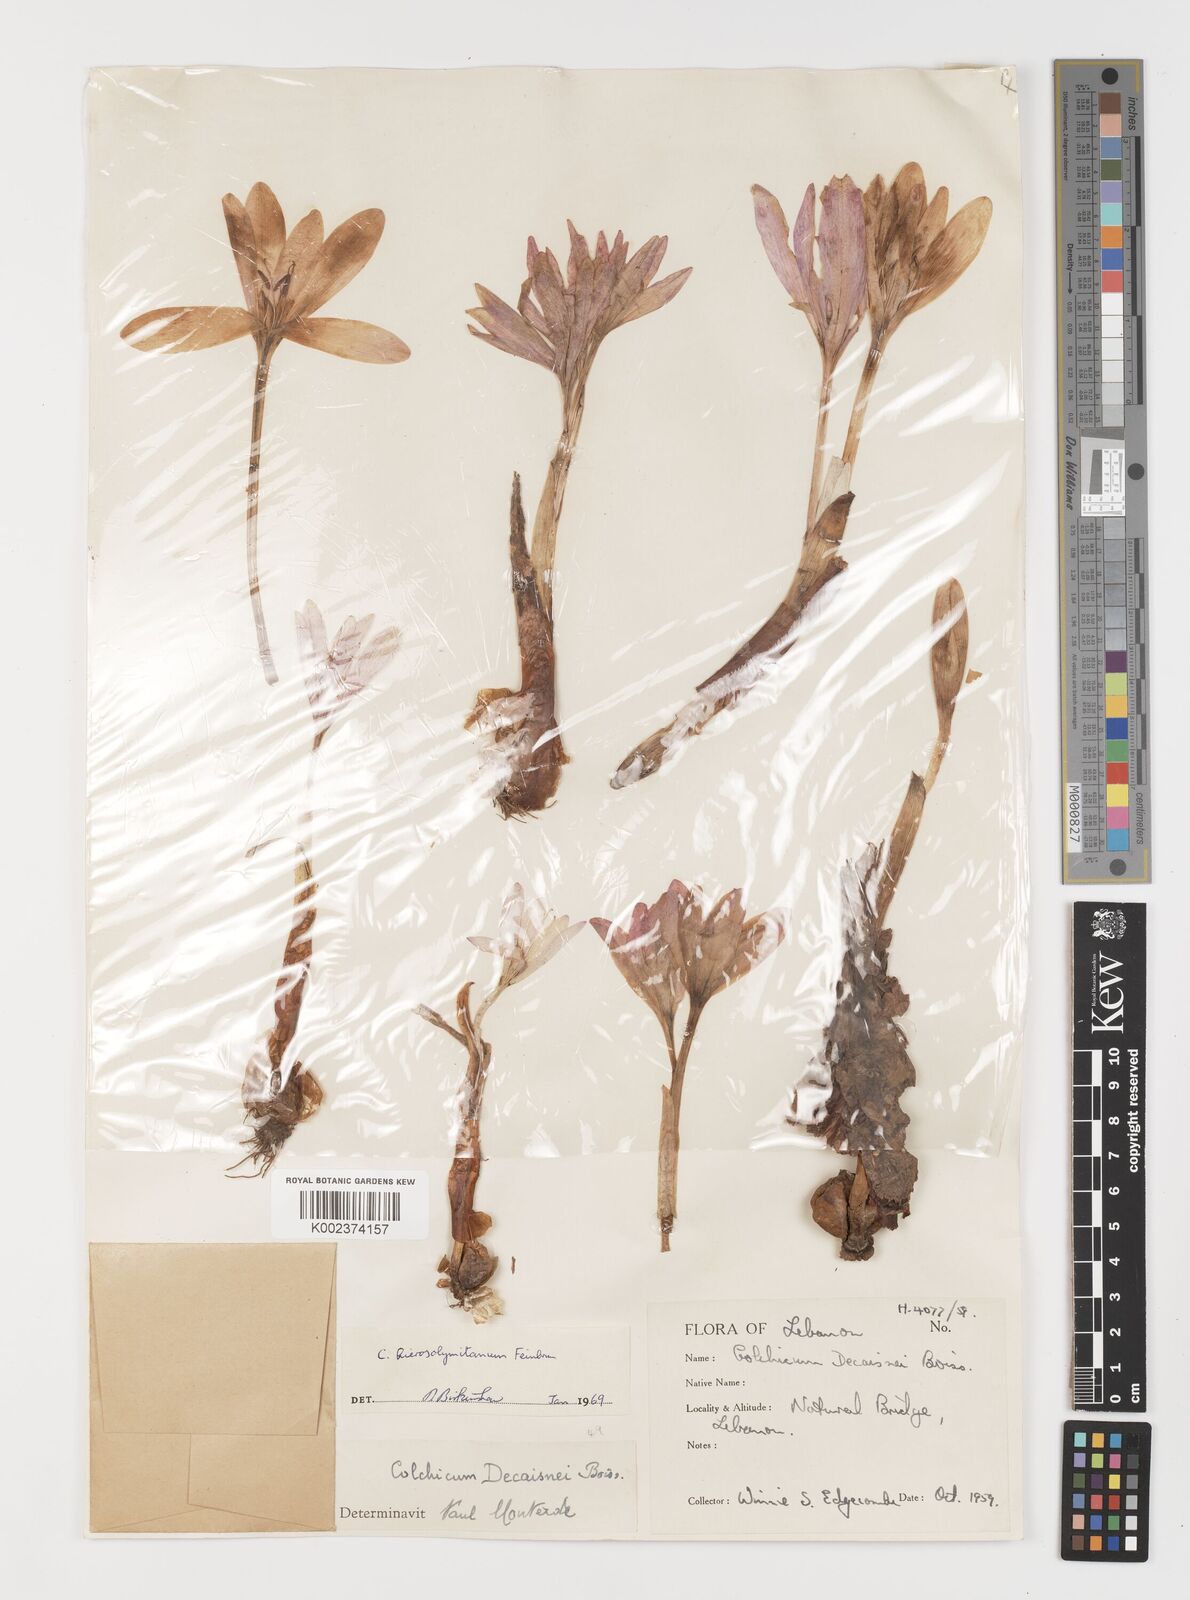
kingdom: Plantae
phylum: Tracheophyta
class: Liliopsida
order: Liliales
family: Colchicaceae
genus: Colchicum
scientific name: Colchicum hierosolymitanum
